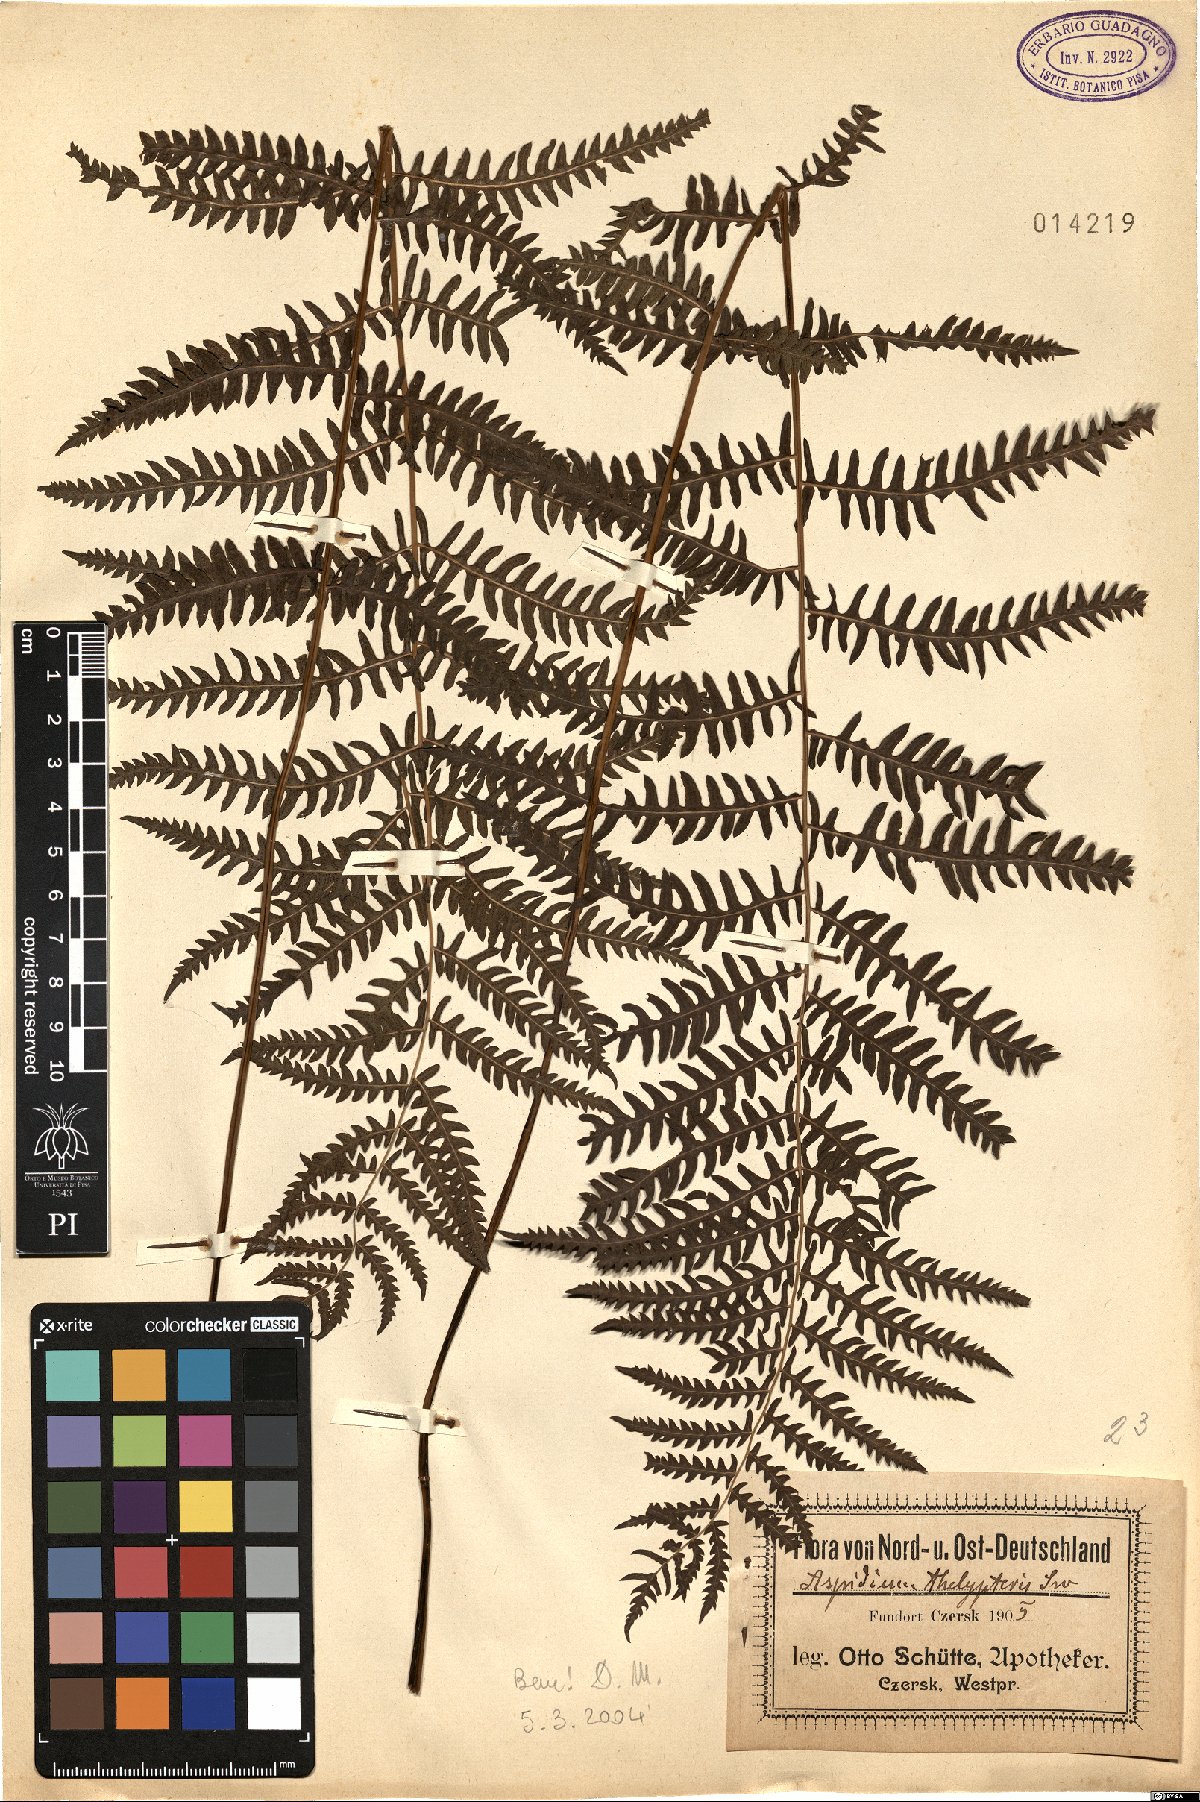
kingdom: Plantae
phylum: Tracheophyta
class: Polypodiopsida
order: Polypodiales
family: Thelypteridaceae
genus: Thelypteris
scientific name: Thelypteris palustris
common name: Marsh fern
